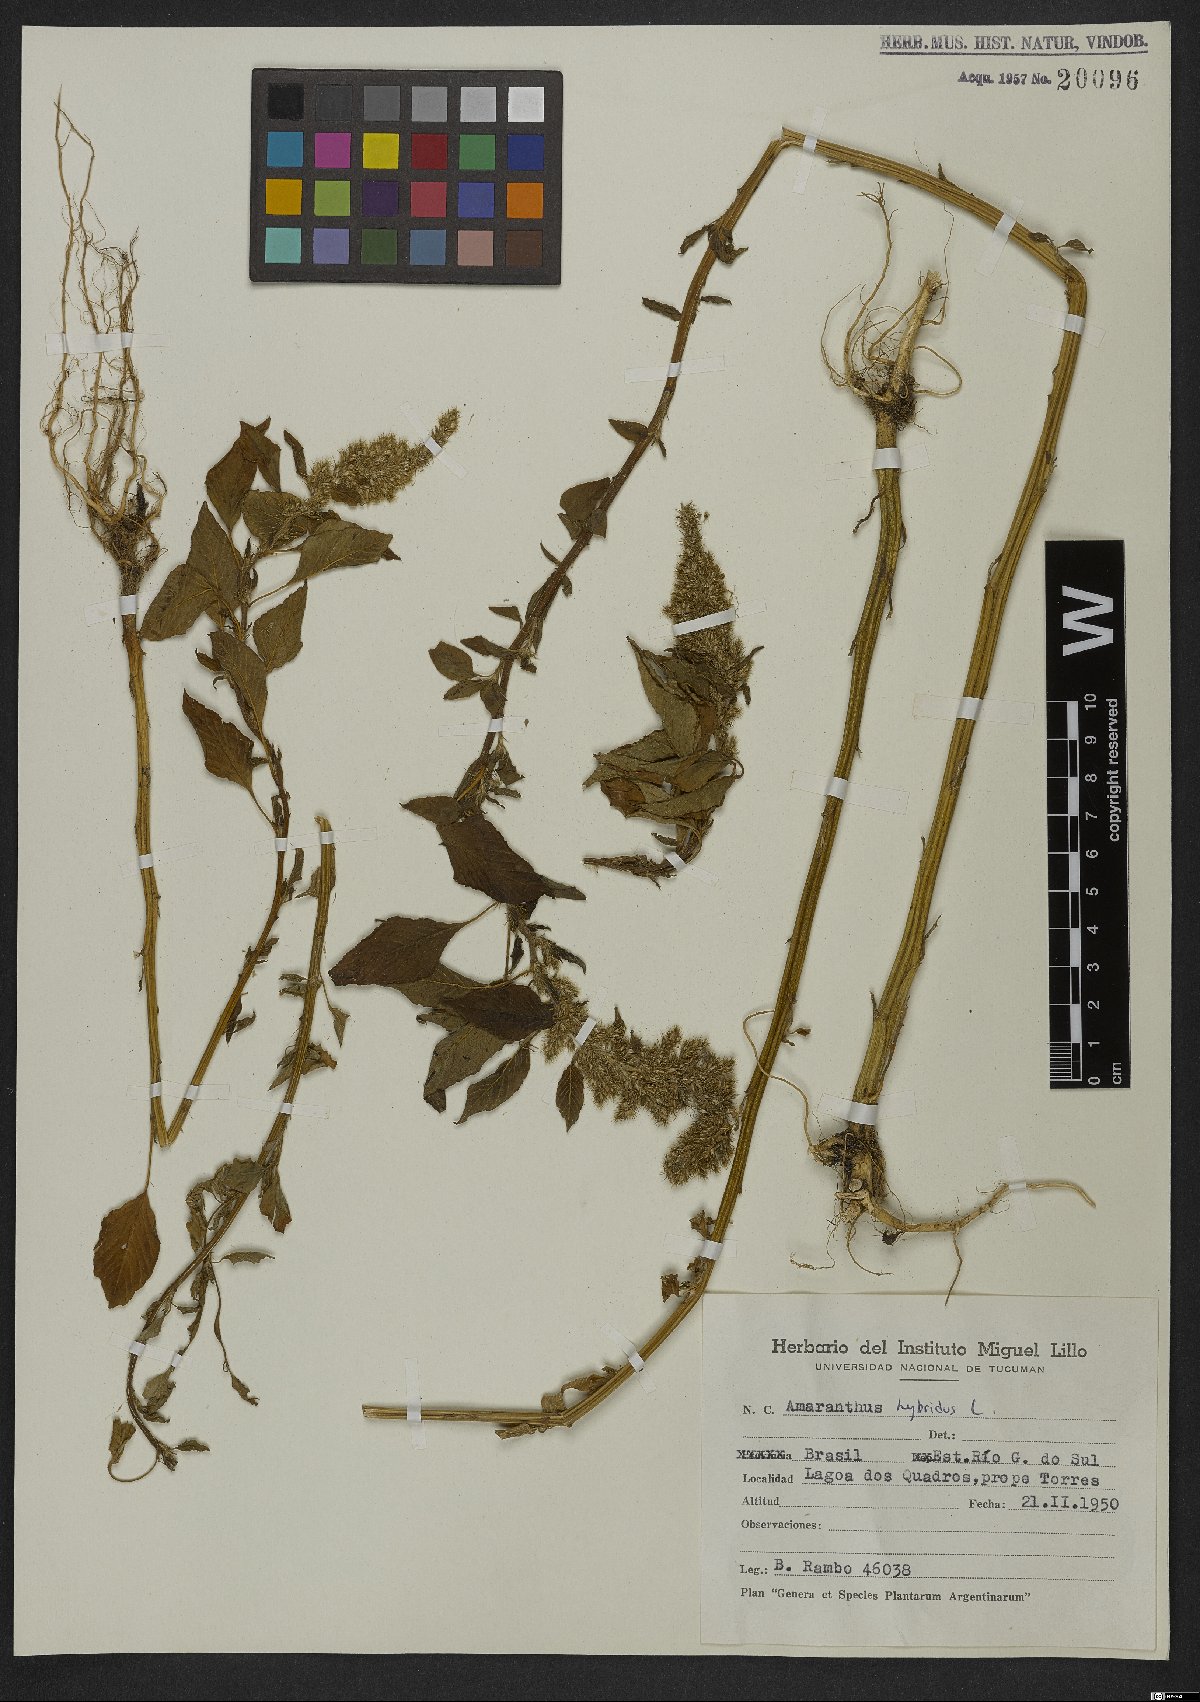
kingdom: Plantae
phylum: Tracheophyta
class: Magnoliopsida
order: Caryophyllales
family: Amaranthaceae
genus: Amaranthus
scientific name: Amaranthus hybridus
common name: Green amaranth
